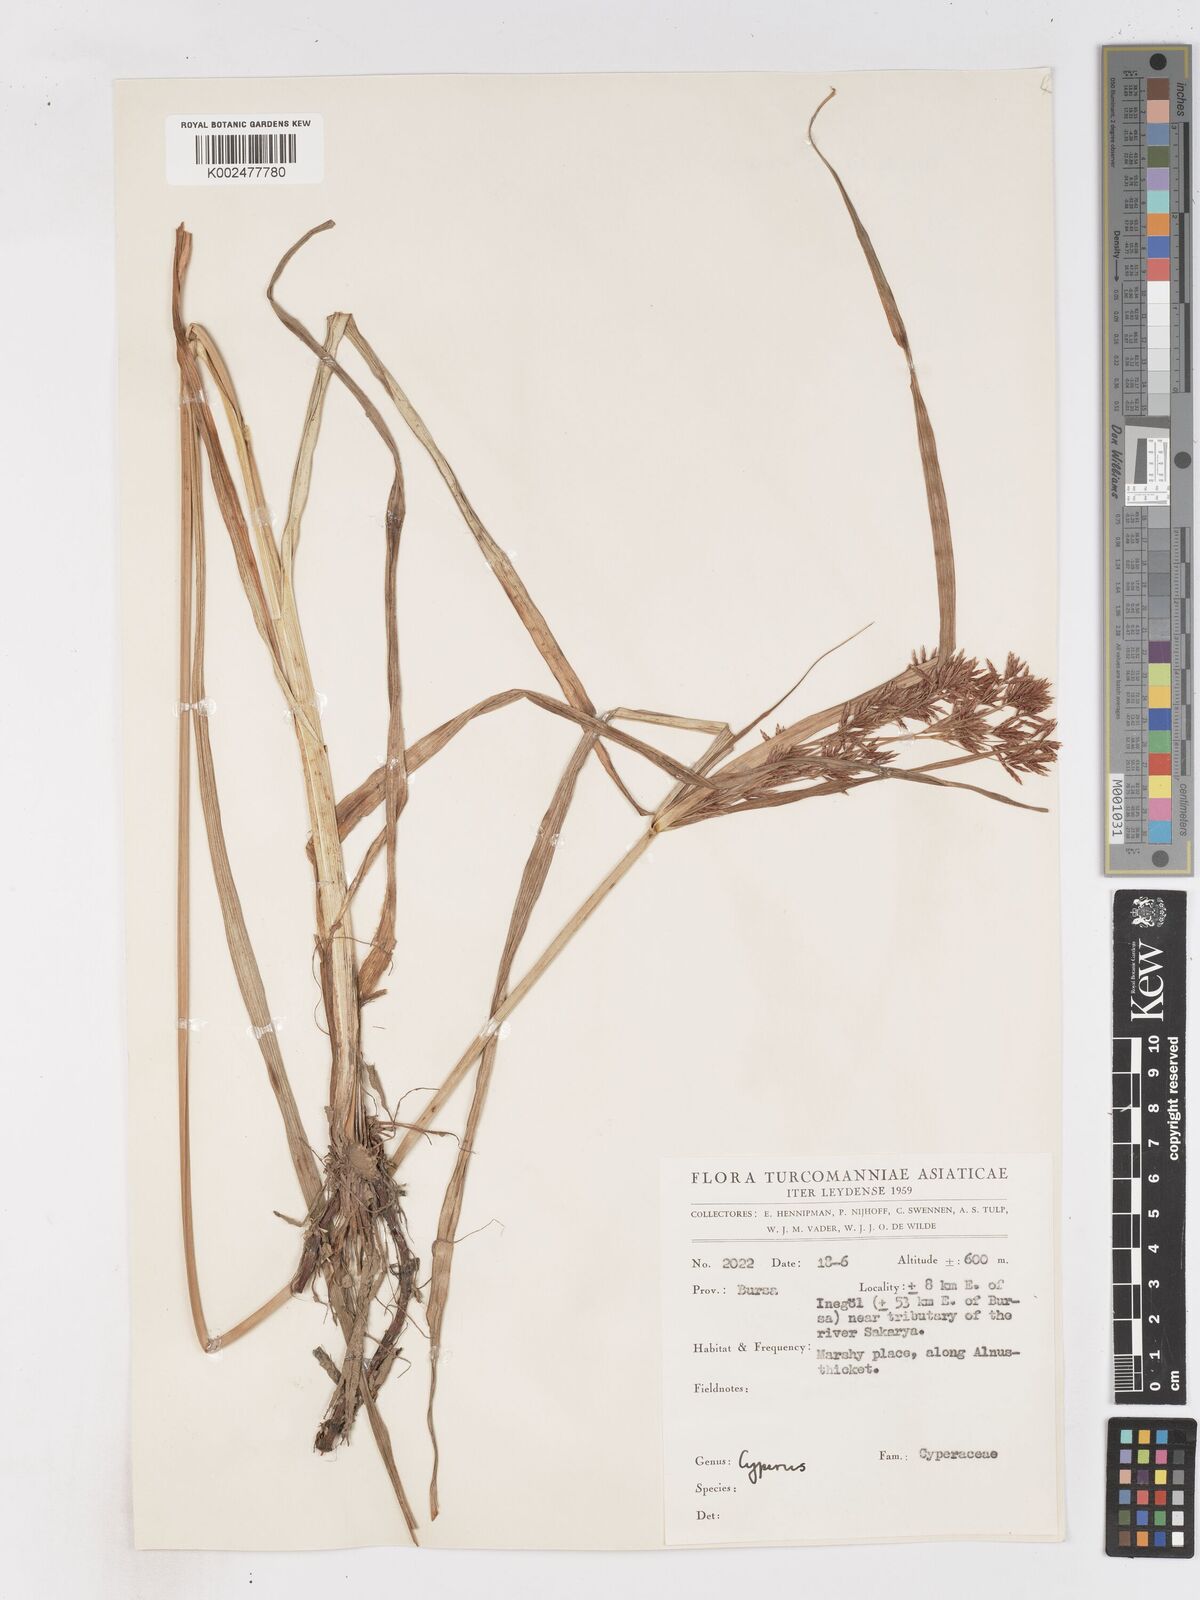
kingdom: Plantae
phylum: Tracheophyta
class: Liliopsida
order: Poales
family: Cyperaceae
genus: Cyperus
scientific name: Cyperus longus
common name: Galingale
